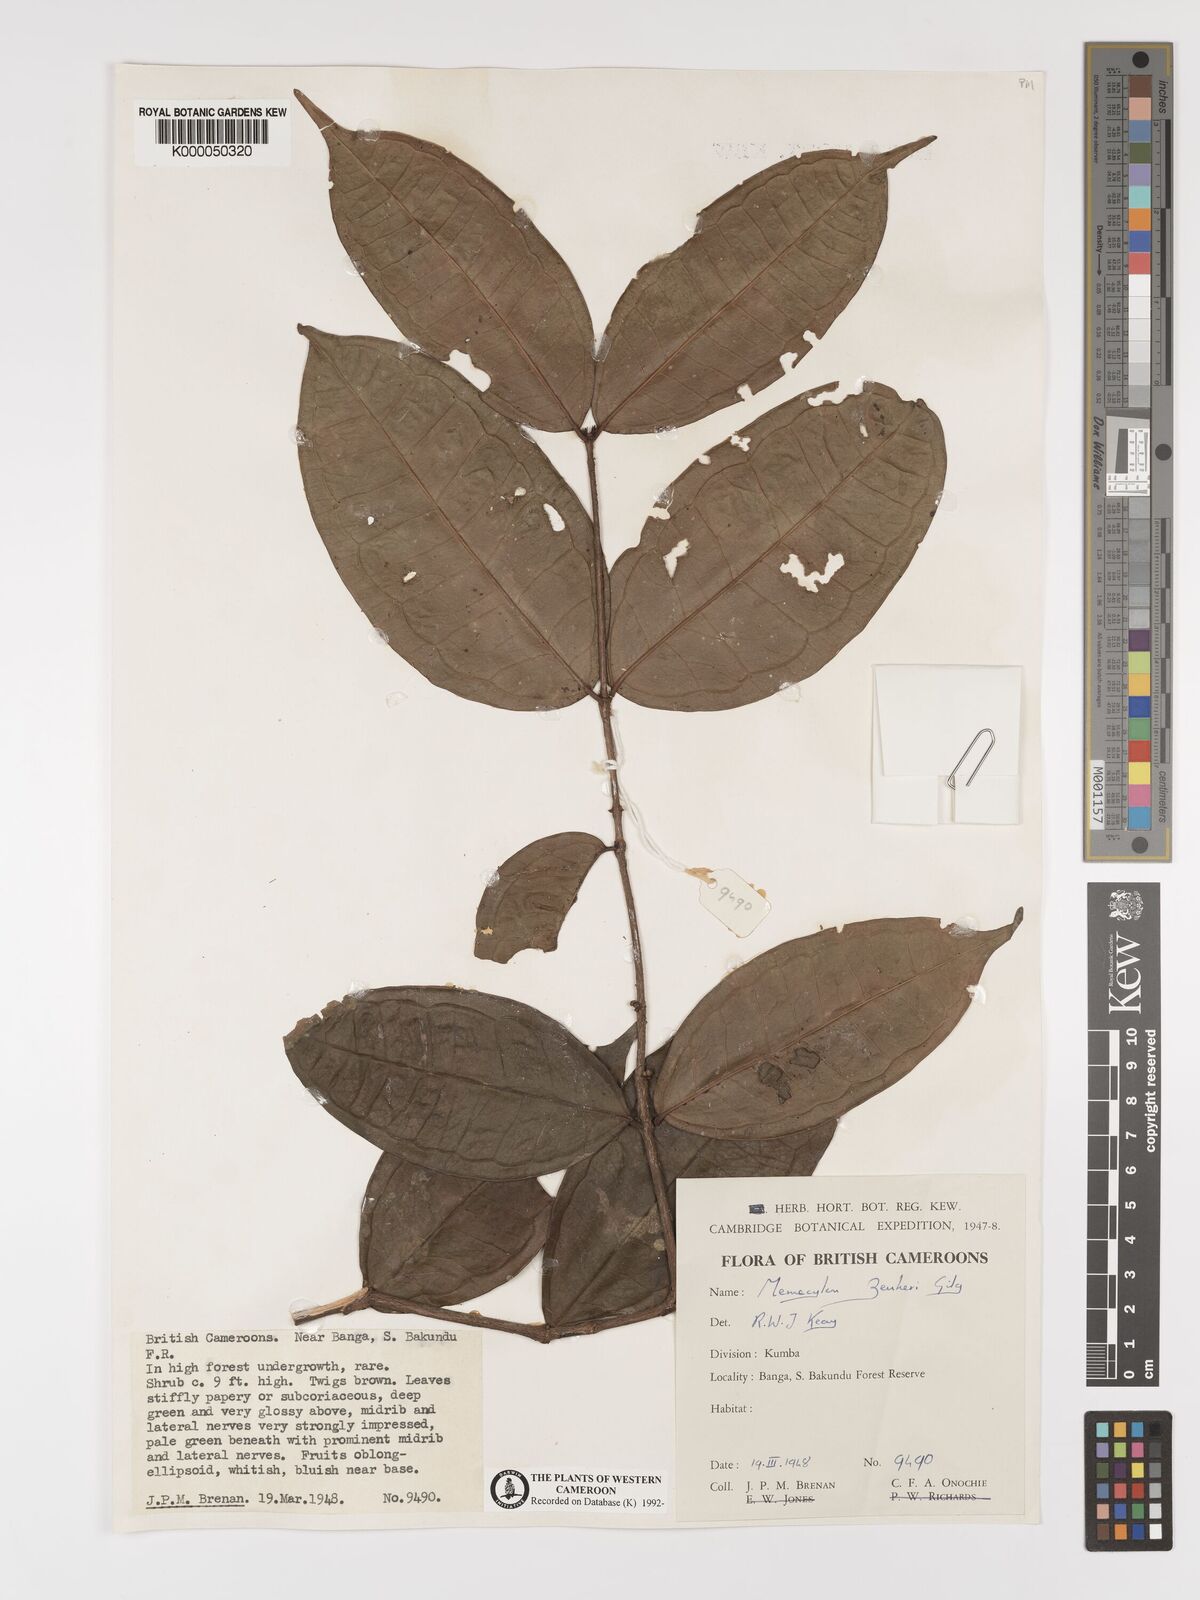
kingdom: Plantae
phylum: Tracheophyta
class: Magnoliopsida
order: Myrtales
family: Melastomataceae
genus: Memecylon
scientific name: Memecylon zenkeri
